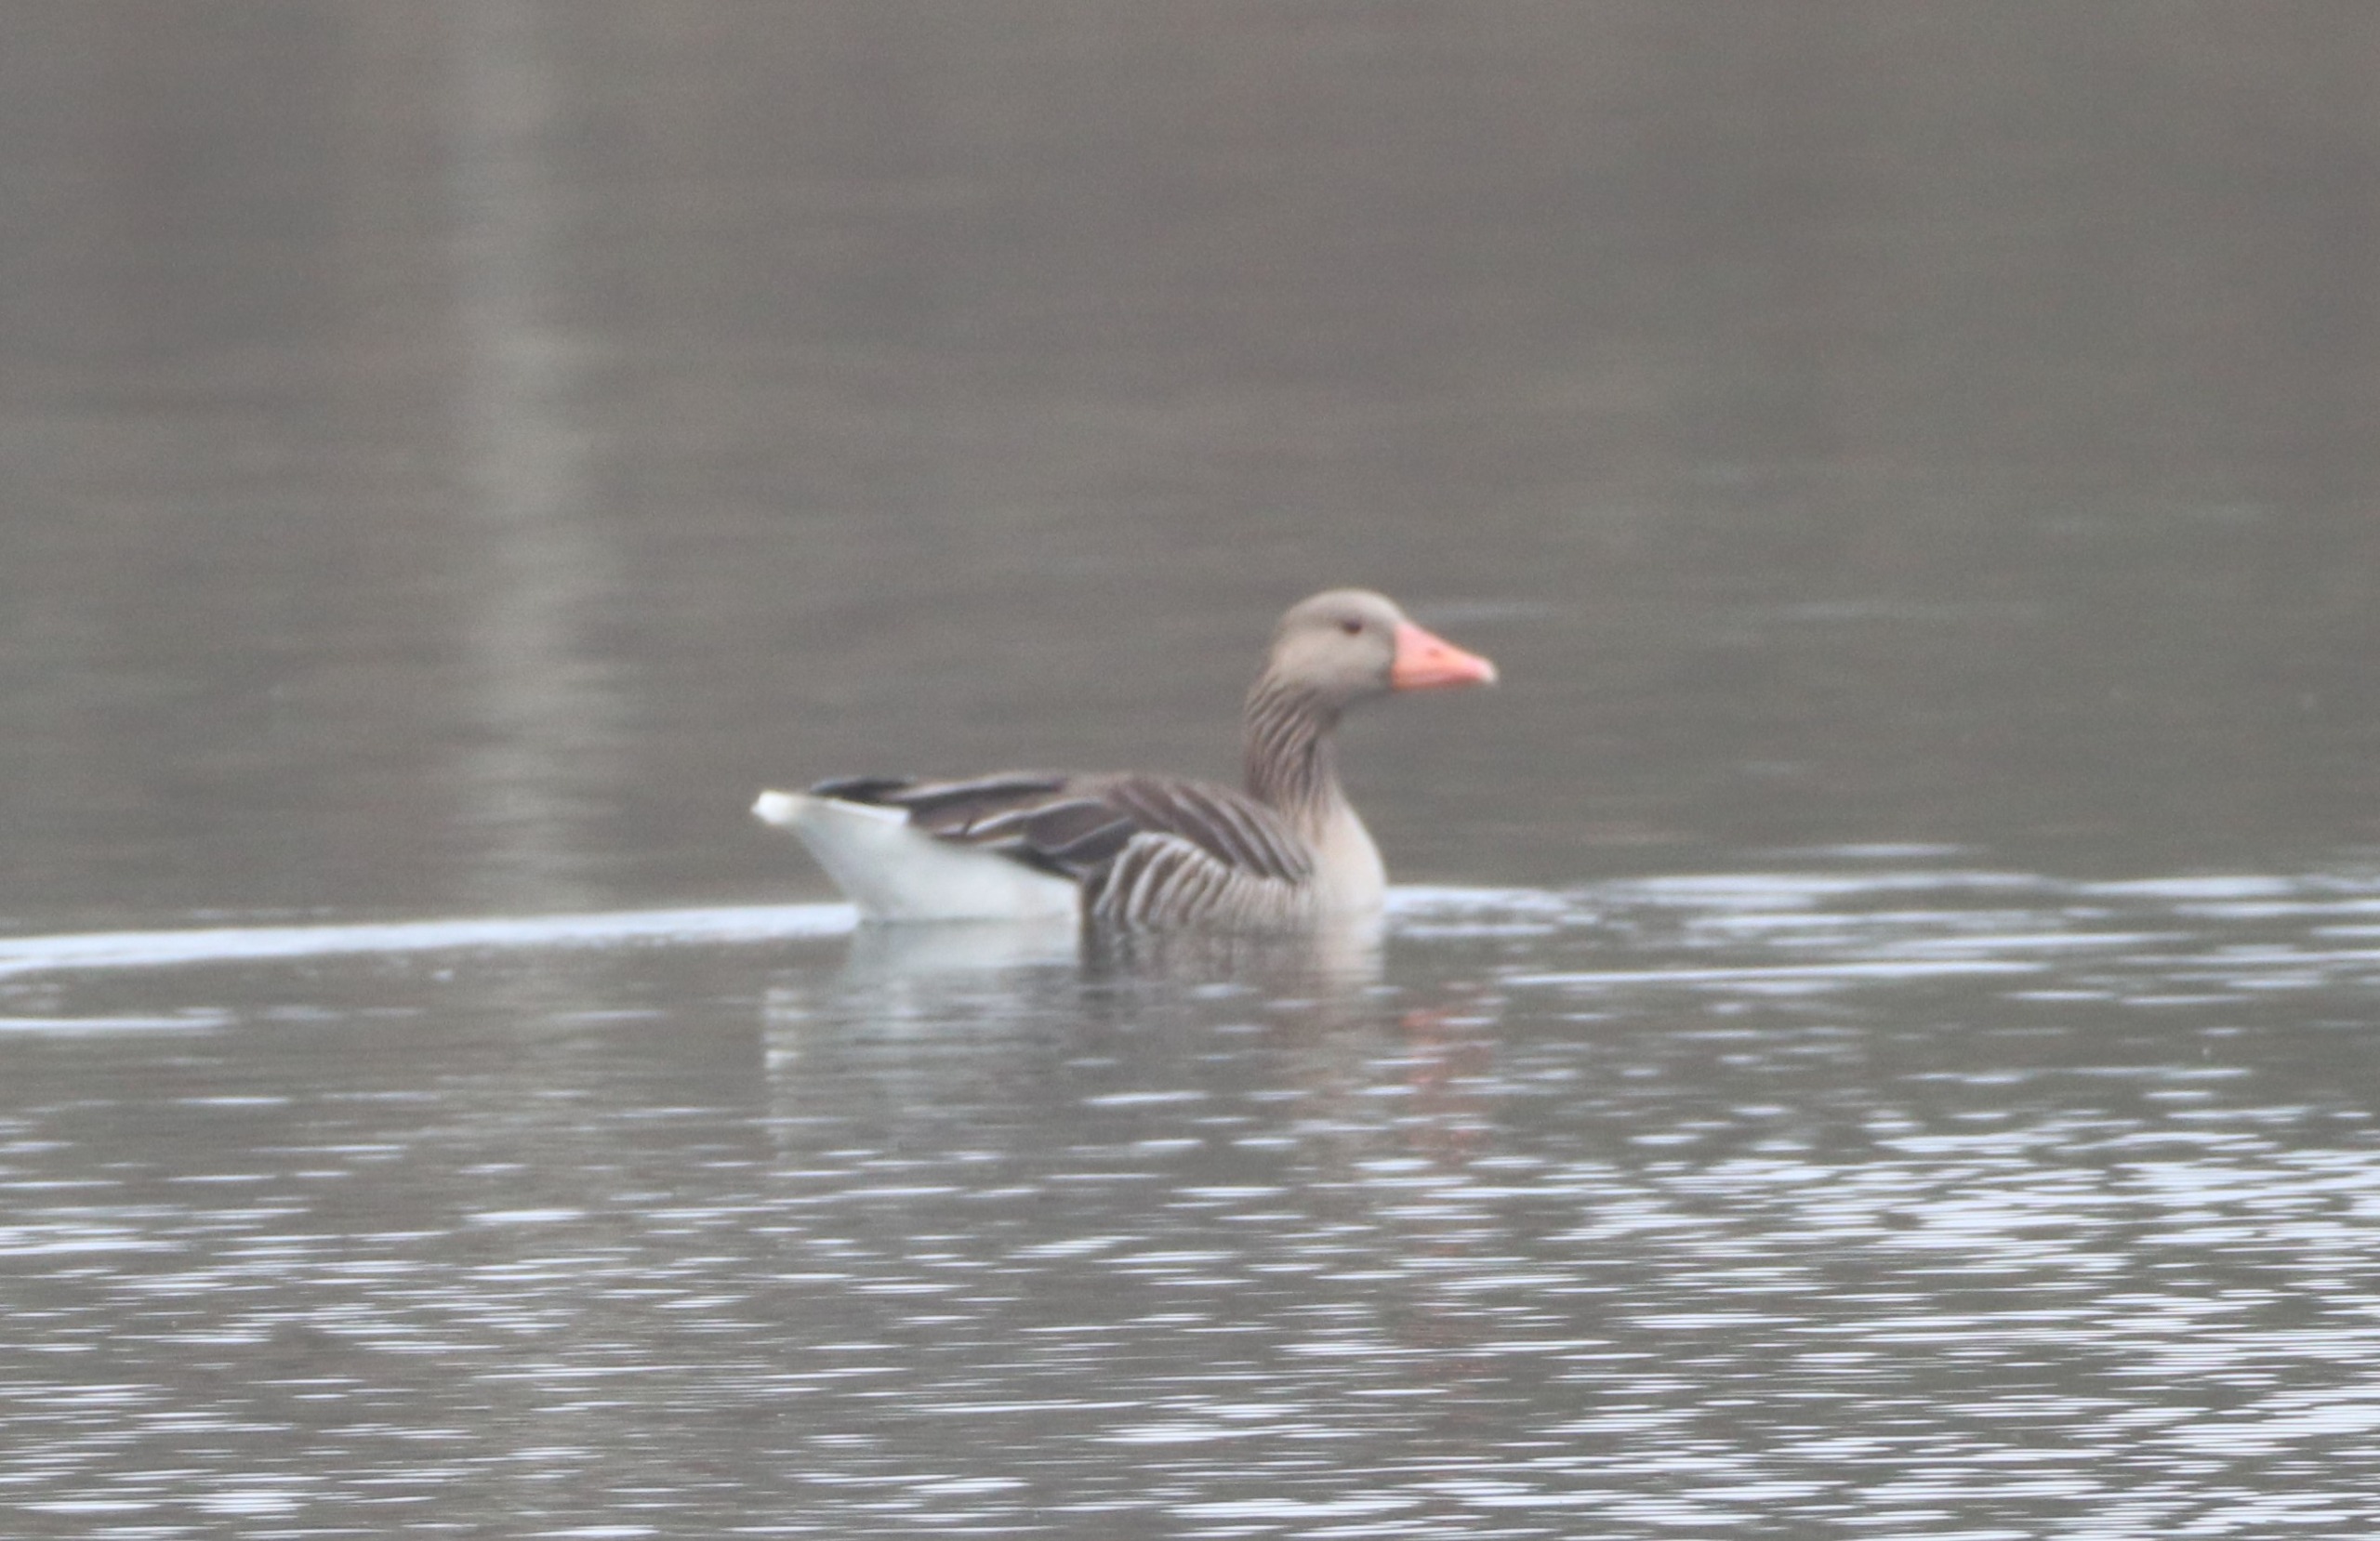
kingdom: Animalia
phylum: Chordata
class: Aves
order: Anseriformes
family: Anatidae
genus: Anser
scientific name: Anser anser
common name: Grågås
